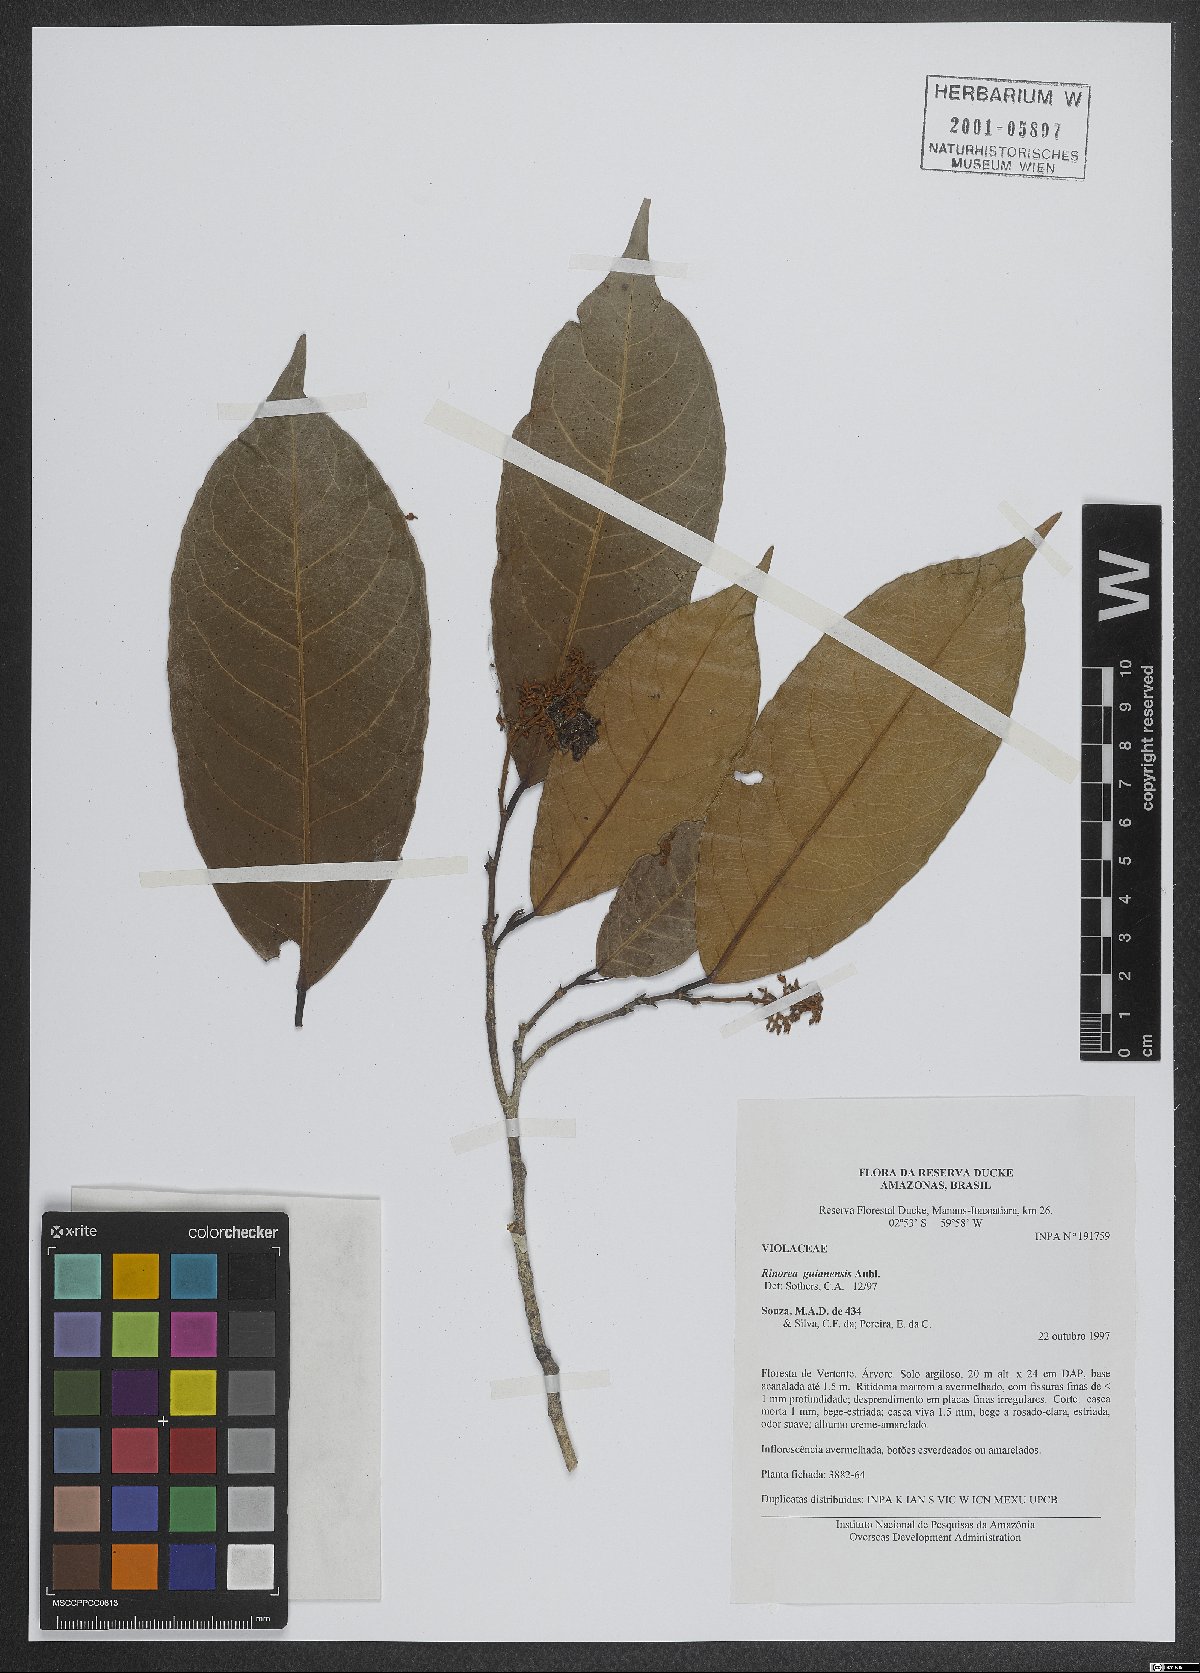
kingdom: Plantae
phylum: Tracheophyta
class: Magnoliopsida
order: Malpighiales
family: Violaceae
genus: Rinorea
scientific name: Rinorea guianensis
